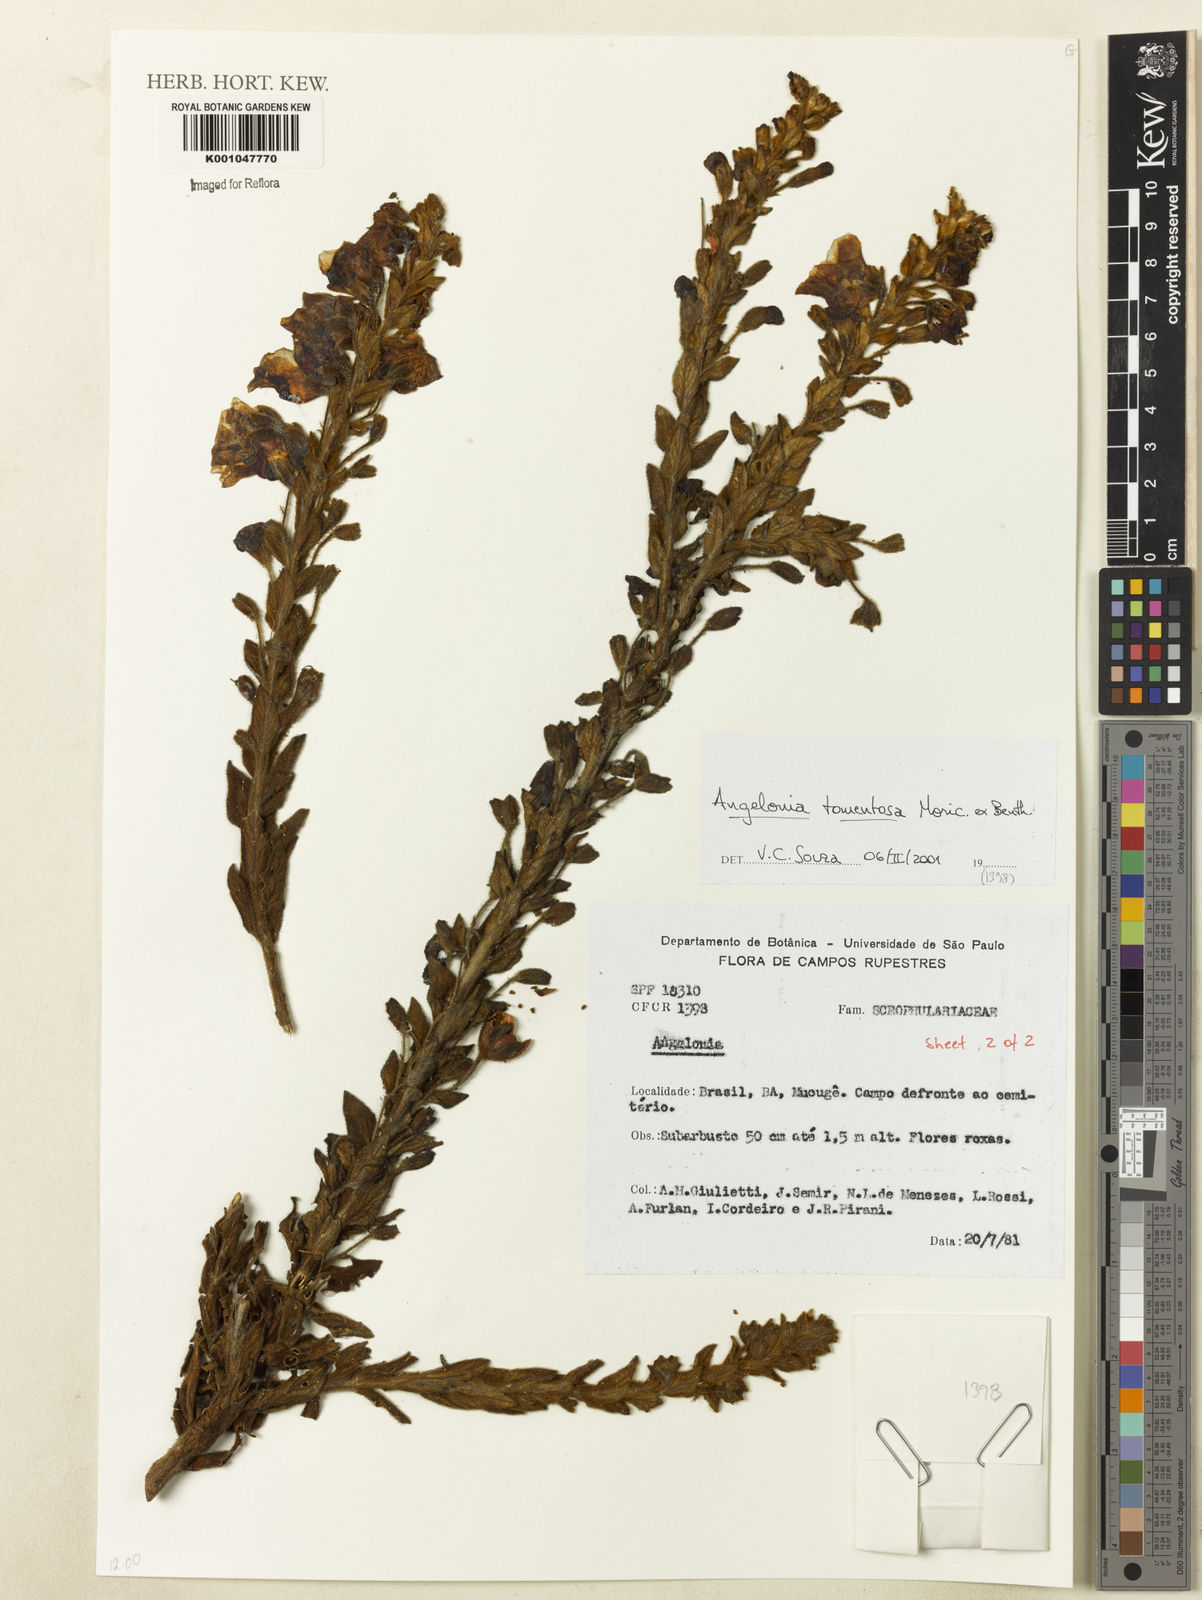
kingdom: Plantae
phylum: Tracheophyta
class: Magnoliopsida
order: Lamiales
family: Plantaginaceae
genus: Angelonia
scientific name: Angelonia tomentosa
